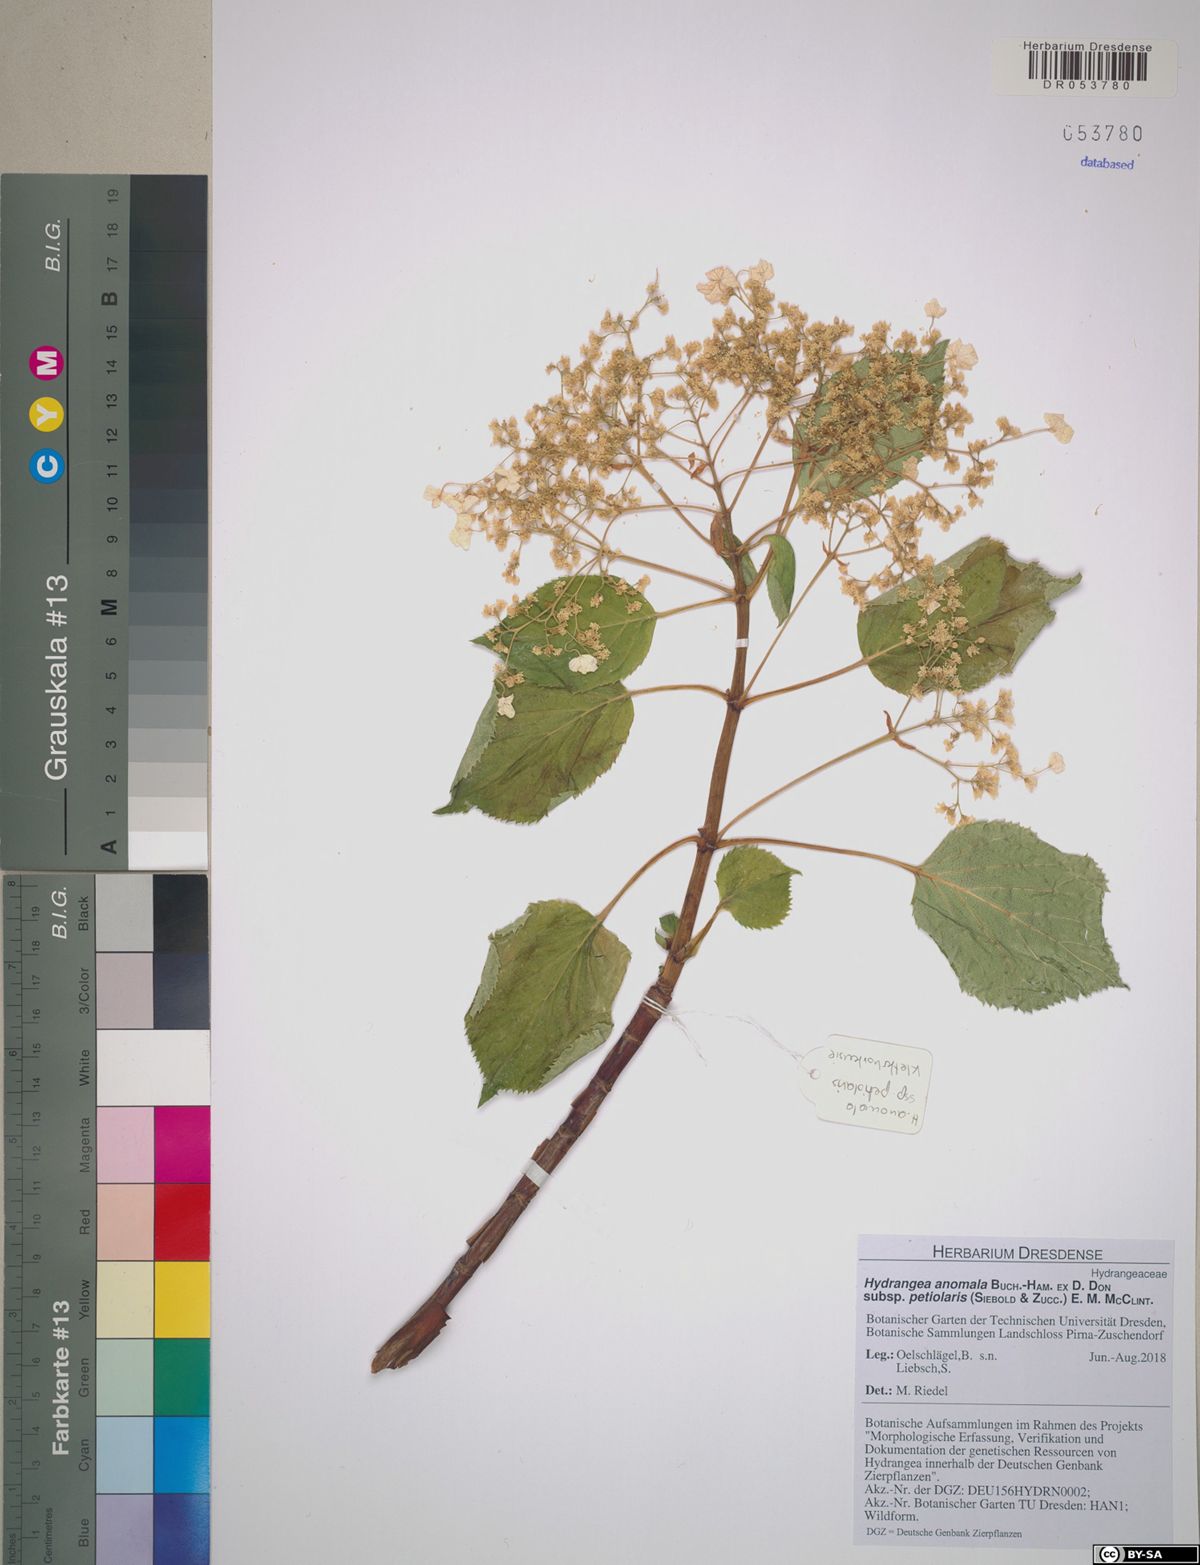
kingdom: Plantae
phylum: Tracheophyta
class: Magnoliopsida
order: Cornales
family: Hydrangeaceae
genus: Hydrangea
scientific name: Hydrangea petiolaris
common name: Japanese climbing hydrangea
